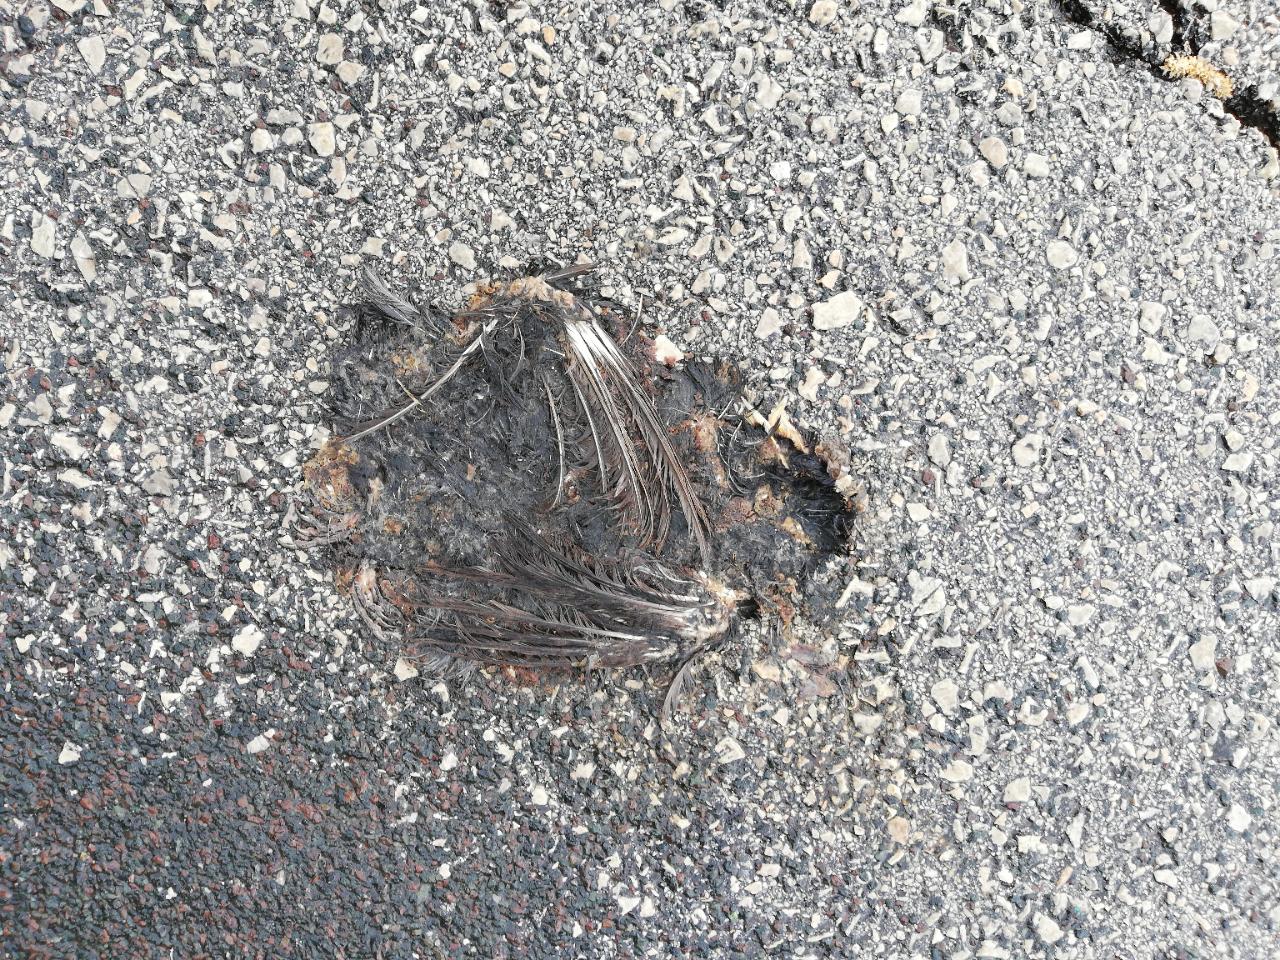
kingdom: Animalia
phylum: Chordata
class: Aves
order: Passeriformes
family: Turdidae
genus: Turdus
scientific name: Turdus merula
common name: Common blackbird
